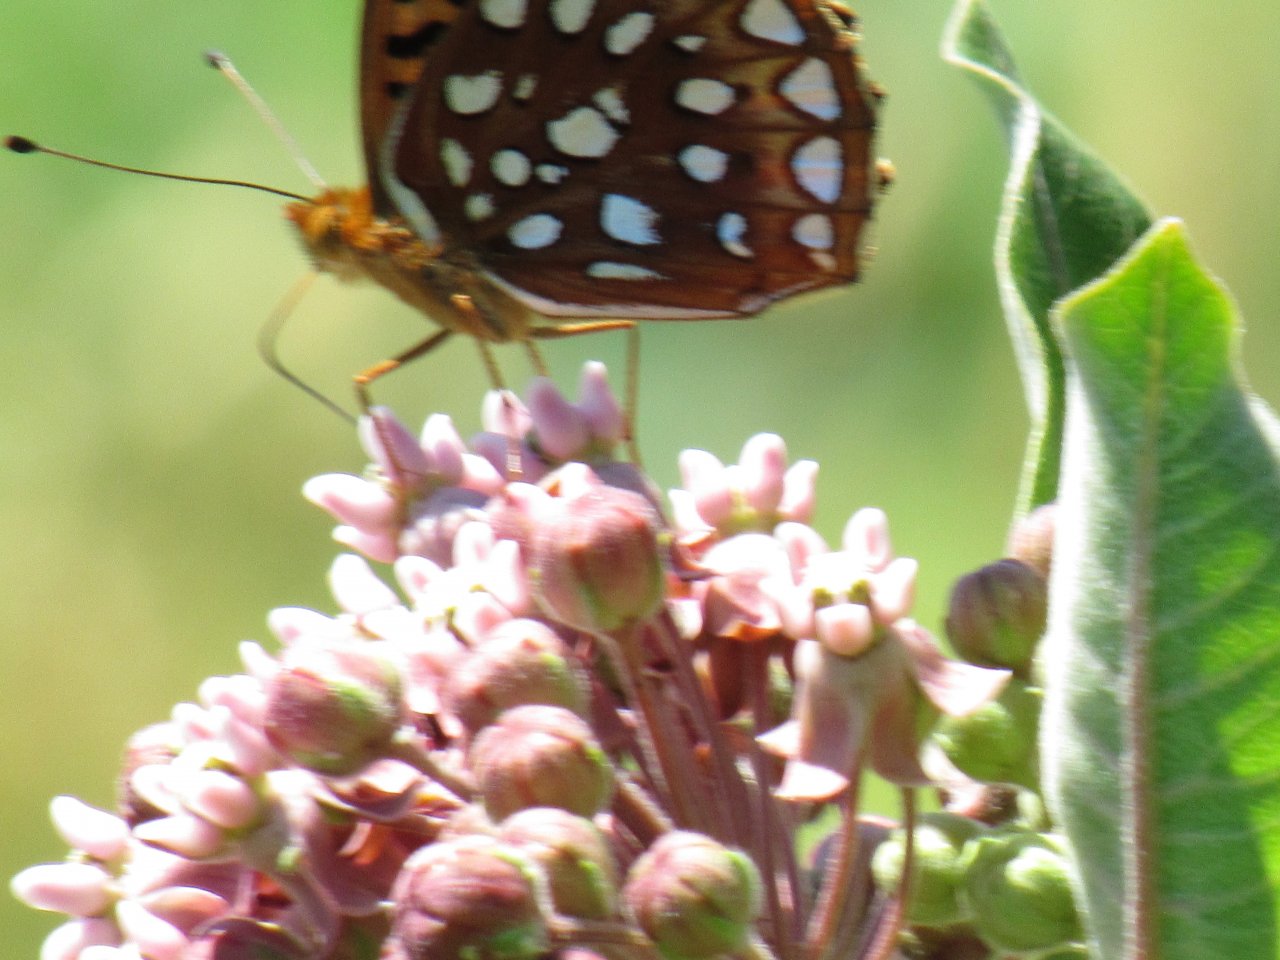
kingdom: Animalia
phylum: Arthropoda
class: Insecta
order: Lepidoptera
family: Nymphalidae
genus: Speyeria
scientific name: Speyeria aphrodite
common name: Aphrodite Fritillary
